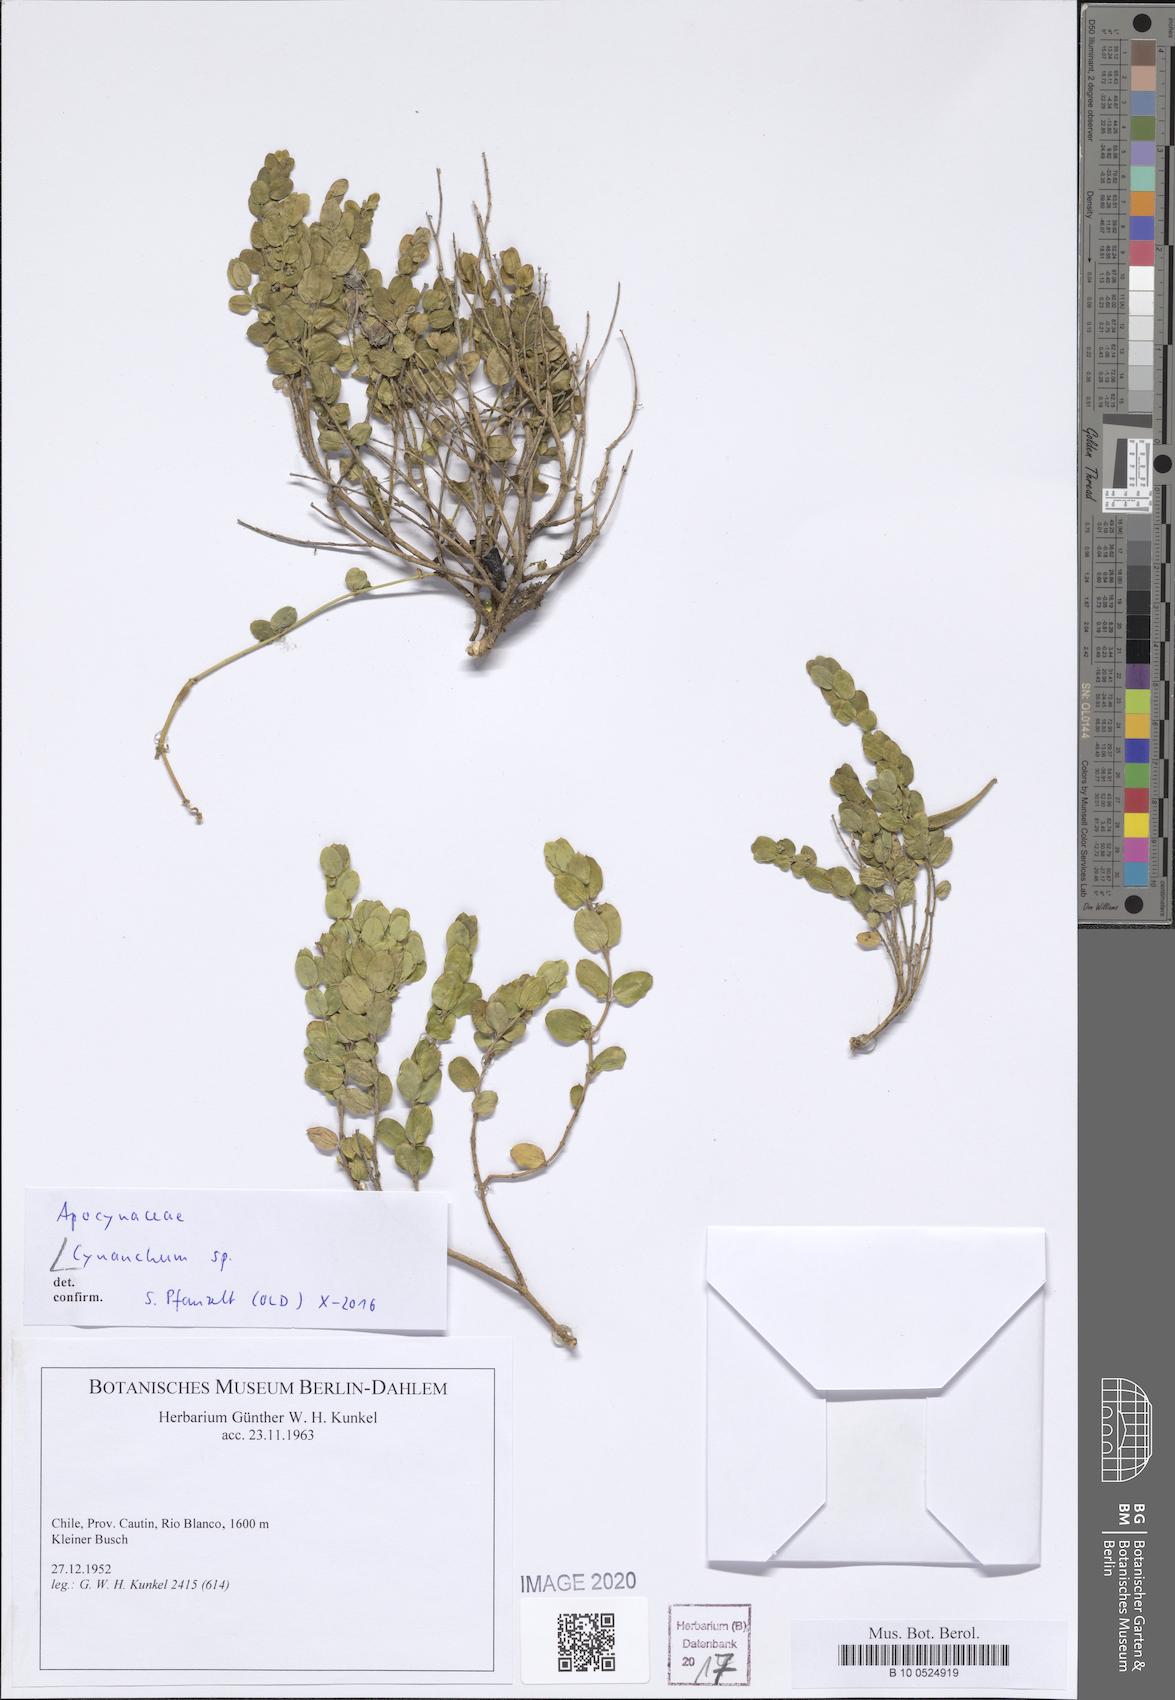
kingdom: Plantae
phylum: Tracheophyta
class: Magnoliopsida
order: Gentianales
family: Apocynaceae
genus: Cynanchum
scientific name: Cynanchum
